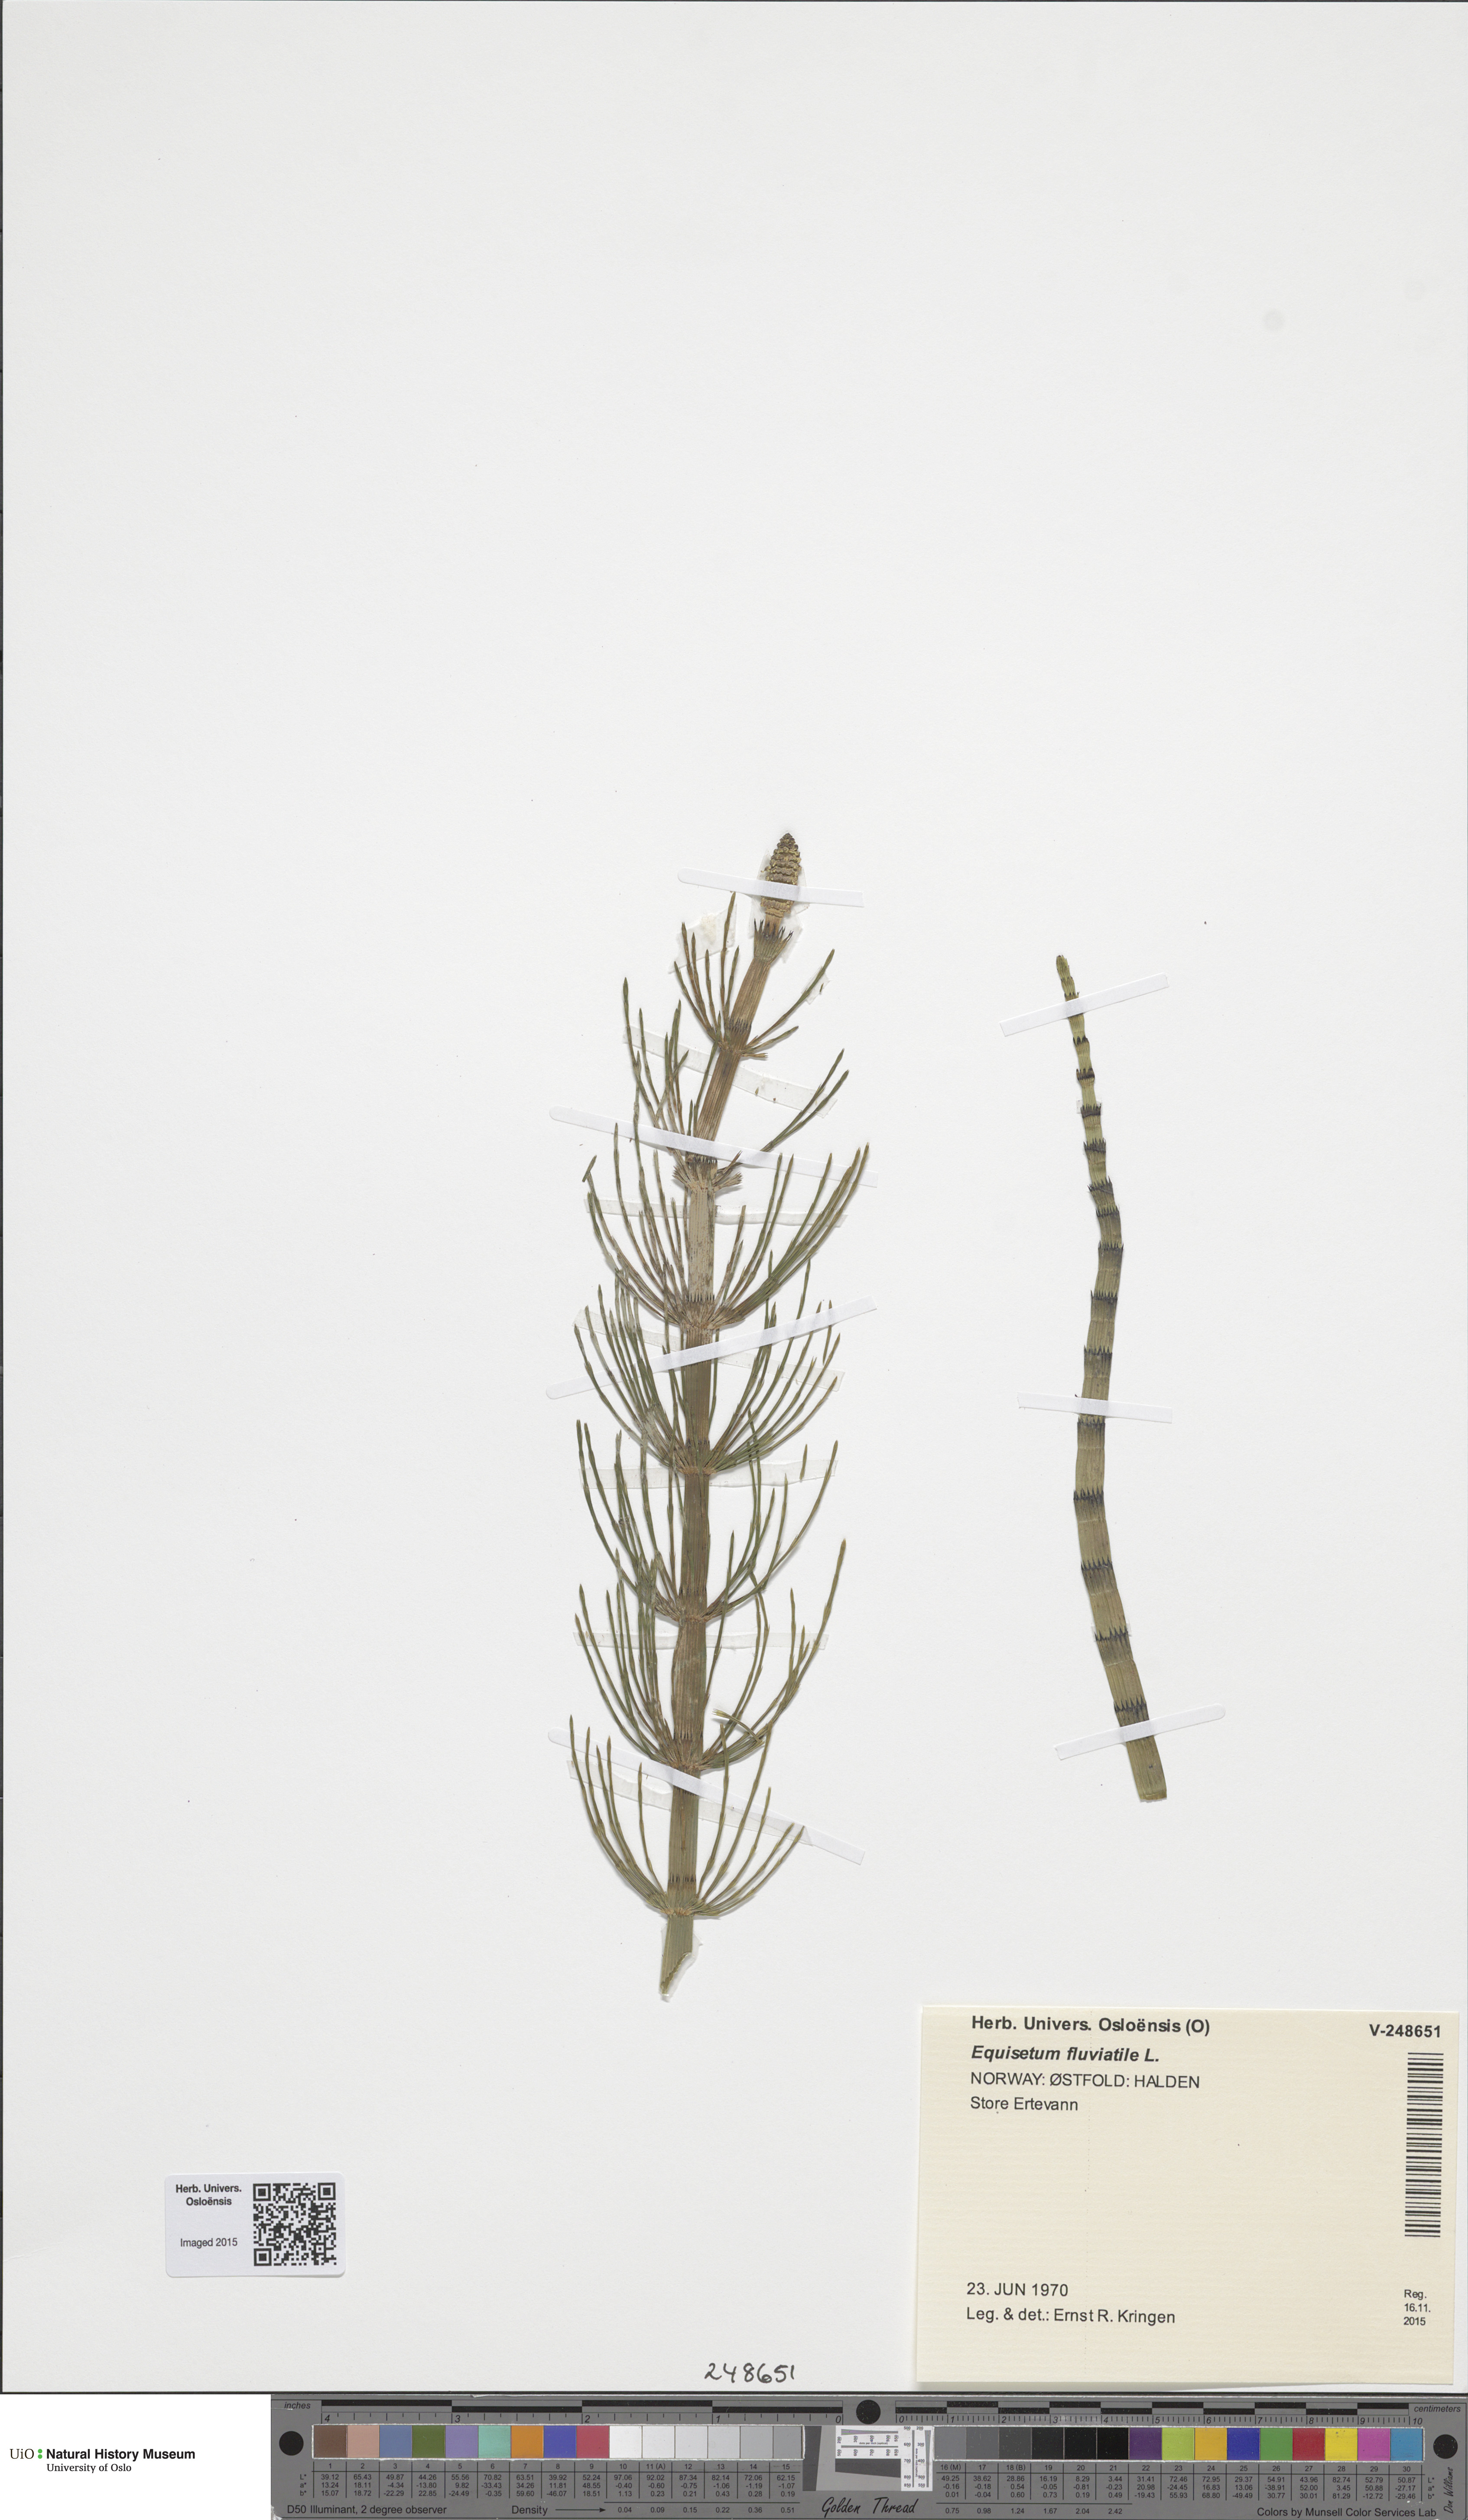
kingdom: Plantae
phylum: Tracheophyta
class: Polypodiopsida
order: Equisetales
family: Equisetaceae
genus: Equisetum
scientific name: Equisetum fluviatile
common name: Water horsetail
